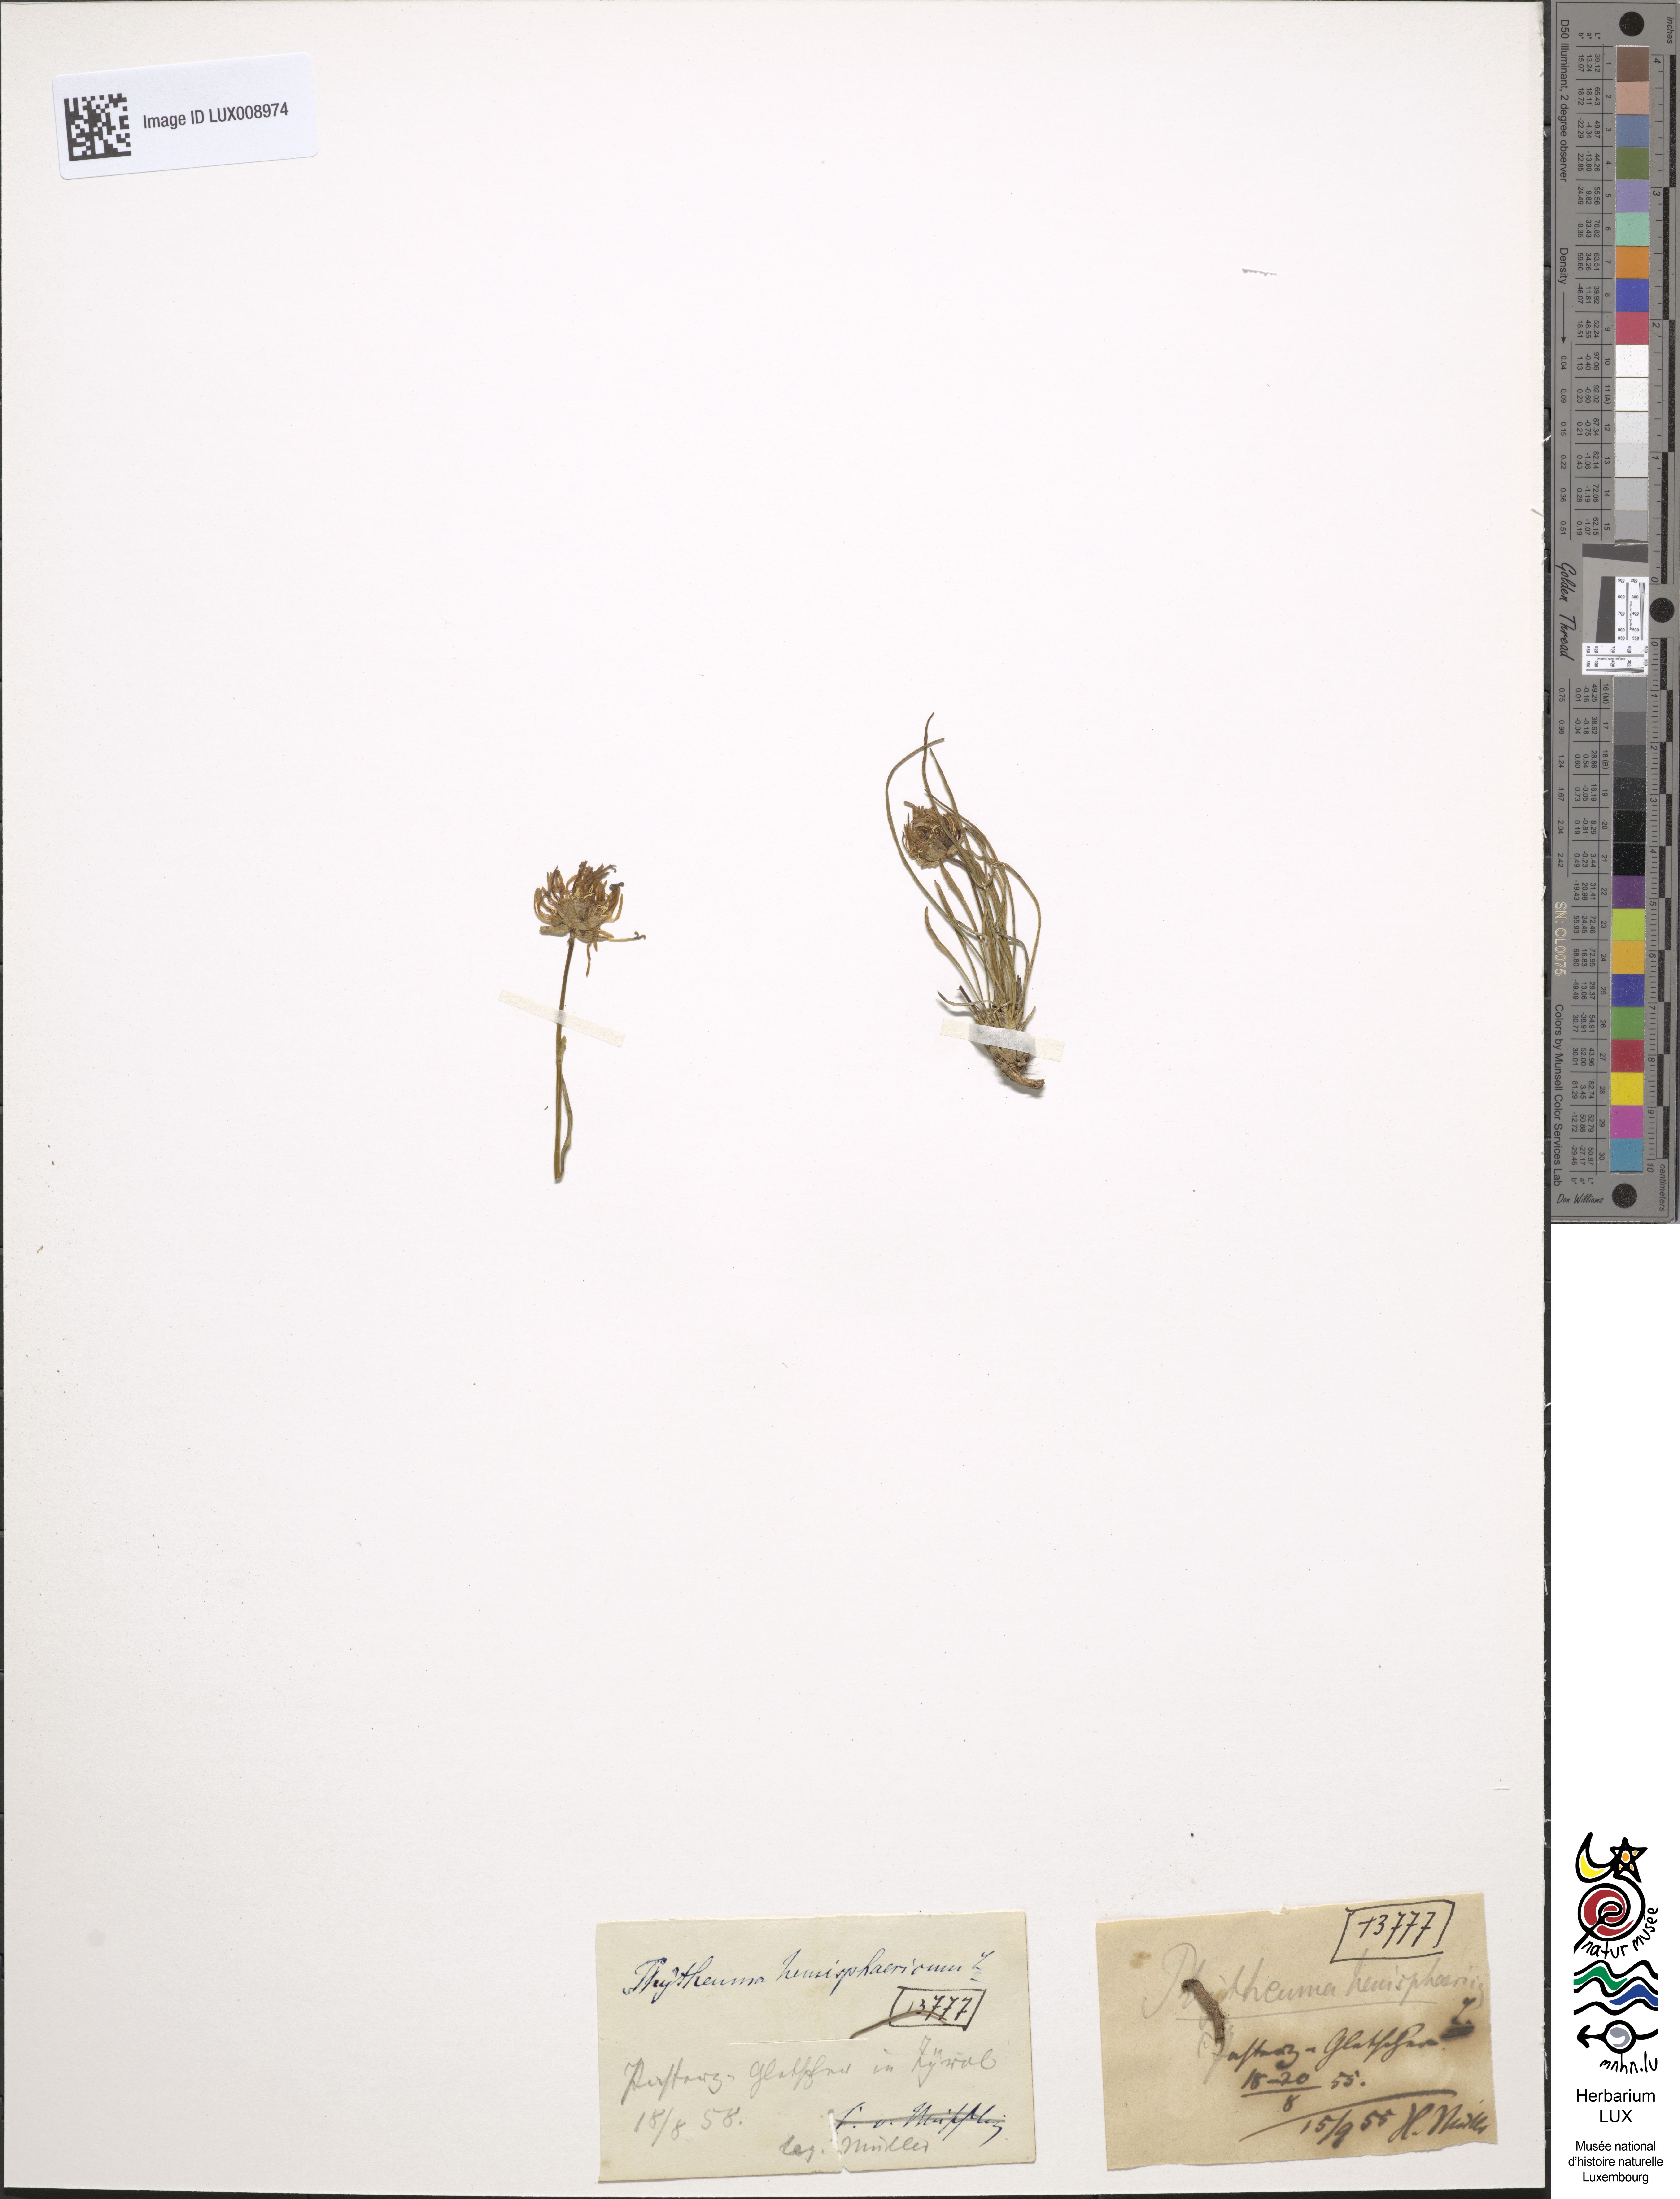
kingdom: Plantae
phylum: Tracheophyta
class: Magnoliopsida
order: Asterales
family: Campanulaceae
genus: Phyteuma
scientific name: Phyteuma hemisphaericum
